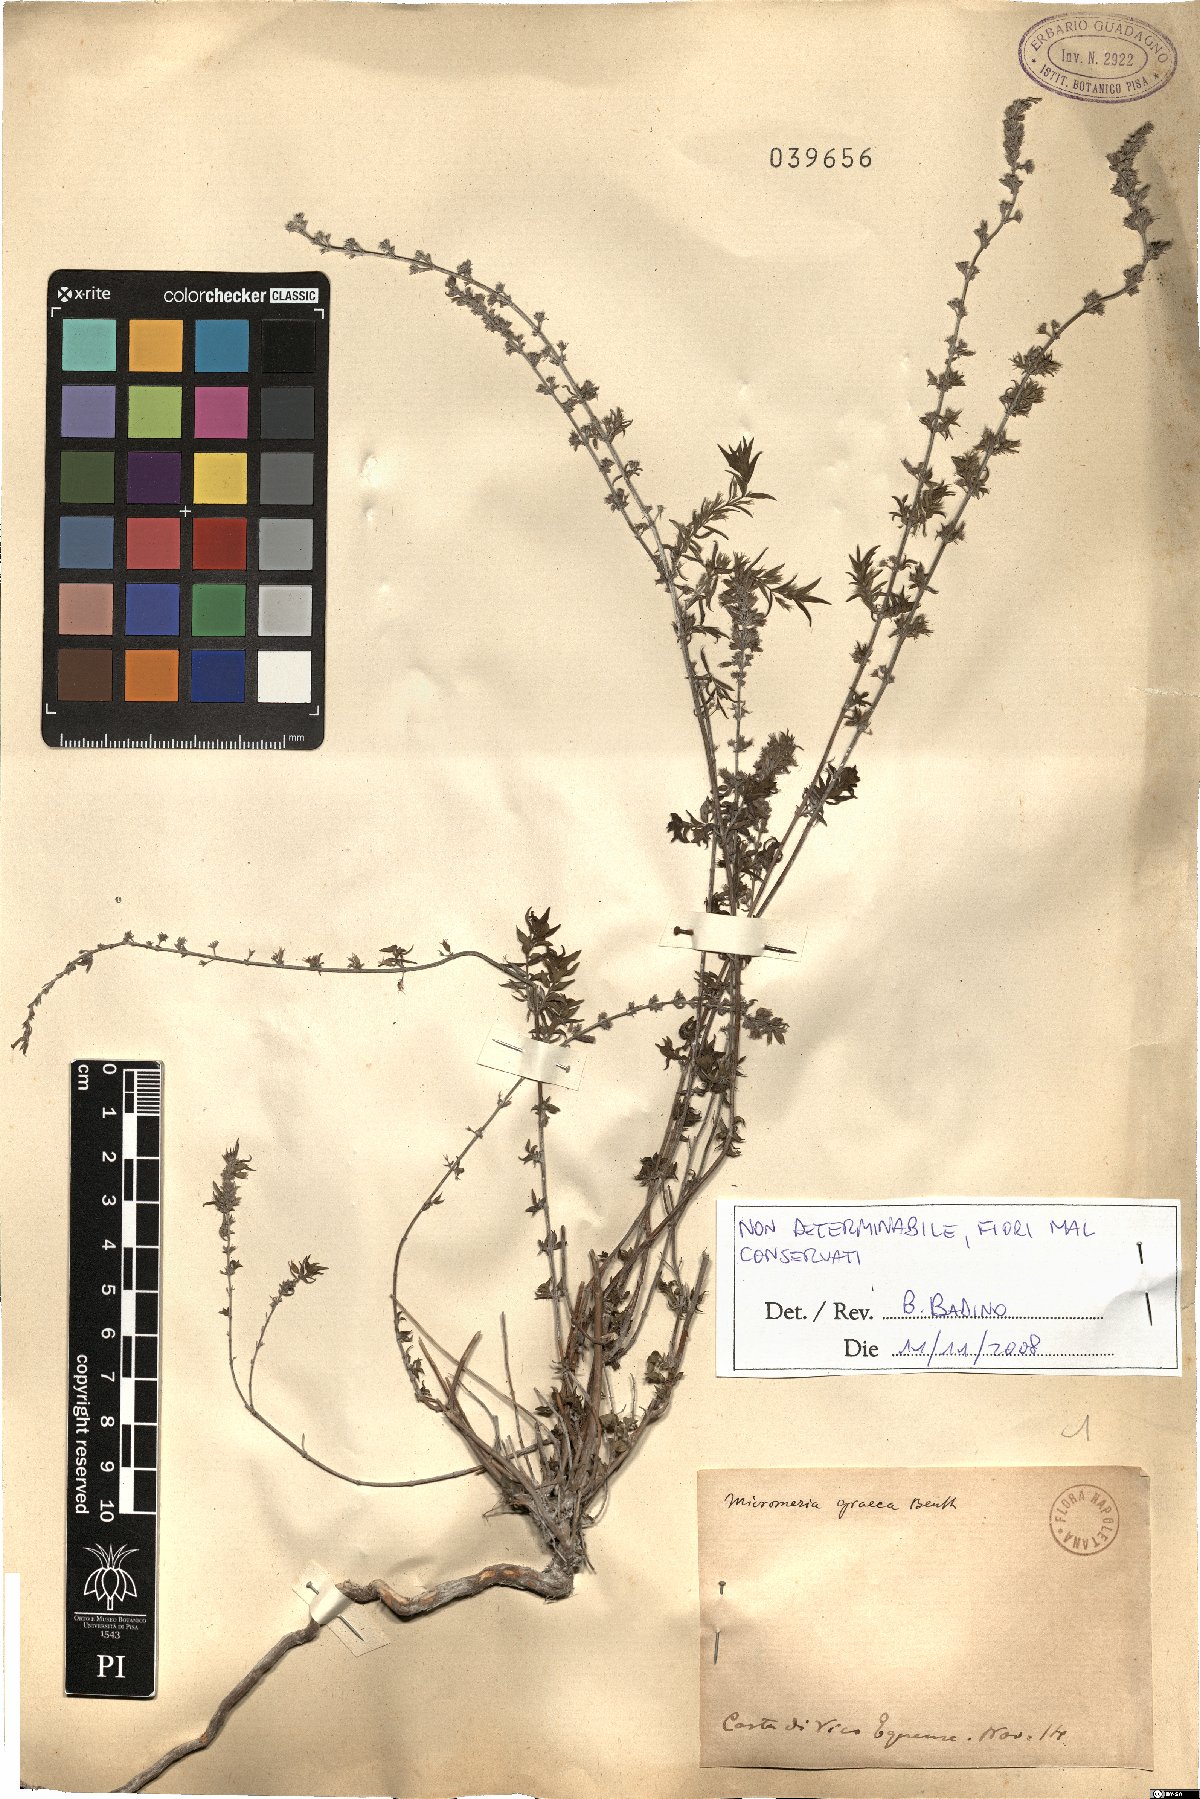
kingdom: Plantae
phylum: Tracheophyta
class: Magnoliopsida
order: Lamiales
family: Lamiaceae
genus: Micromeria
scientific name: Micromeria graeca
